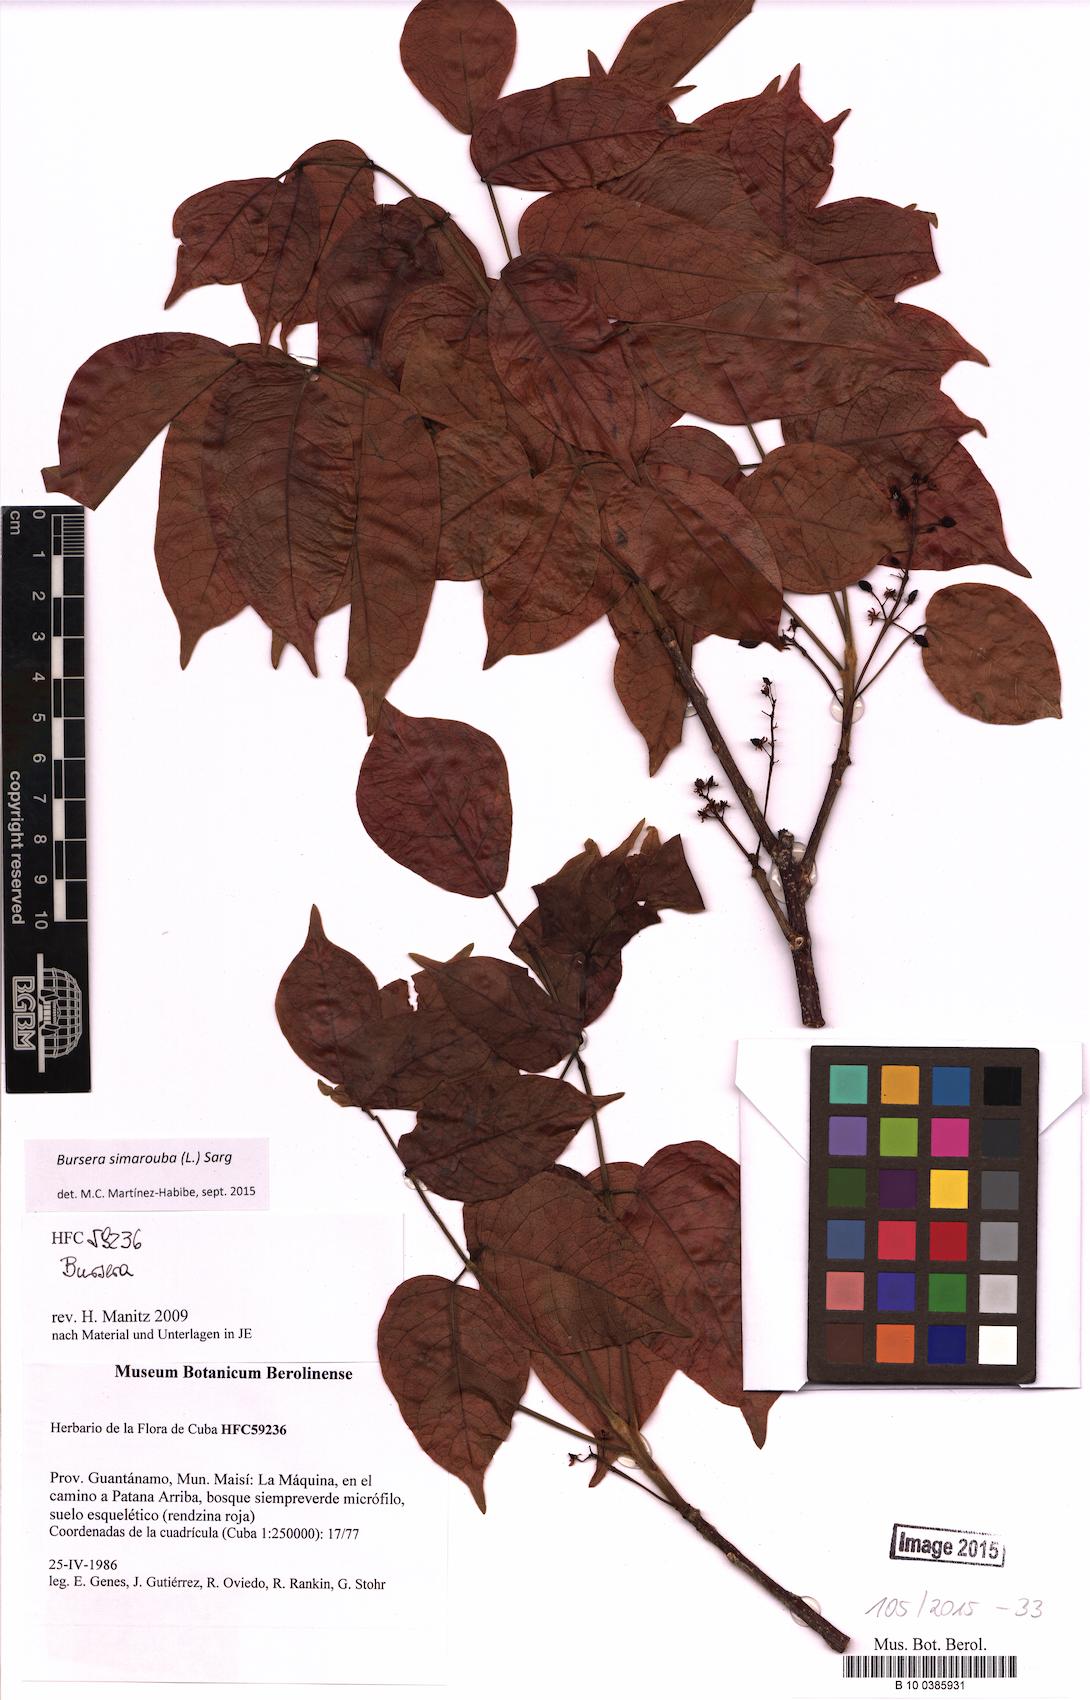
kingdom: Plantae
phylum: Tracheophyta
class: Magnoliopsida
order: Sapindales
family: Burseraceae
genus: Bursera
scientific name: Bursera simaruba
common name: Turpentine tree
